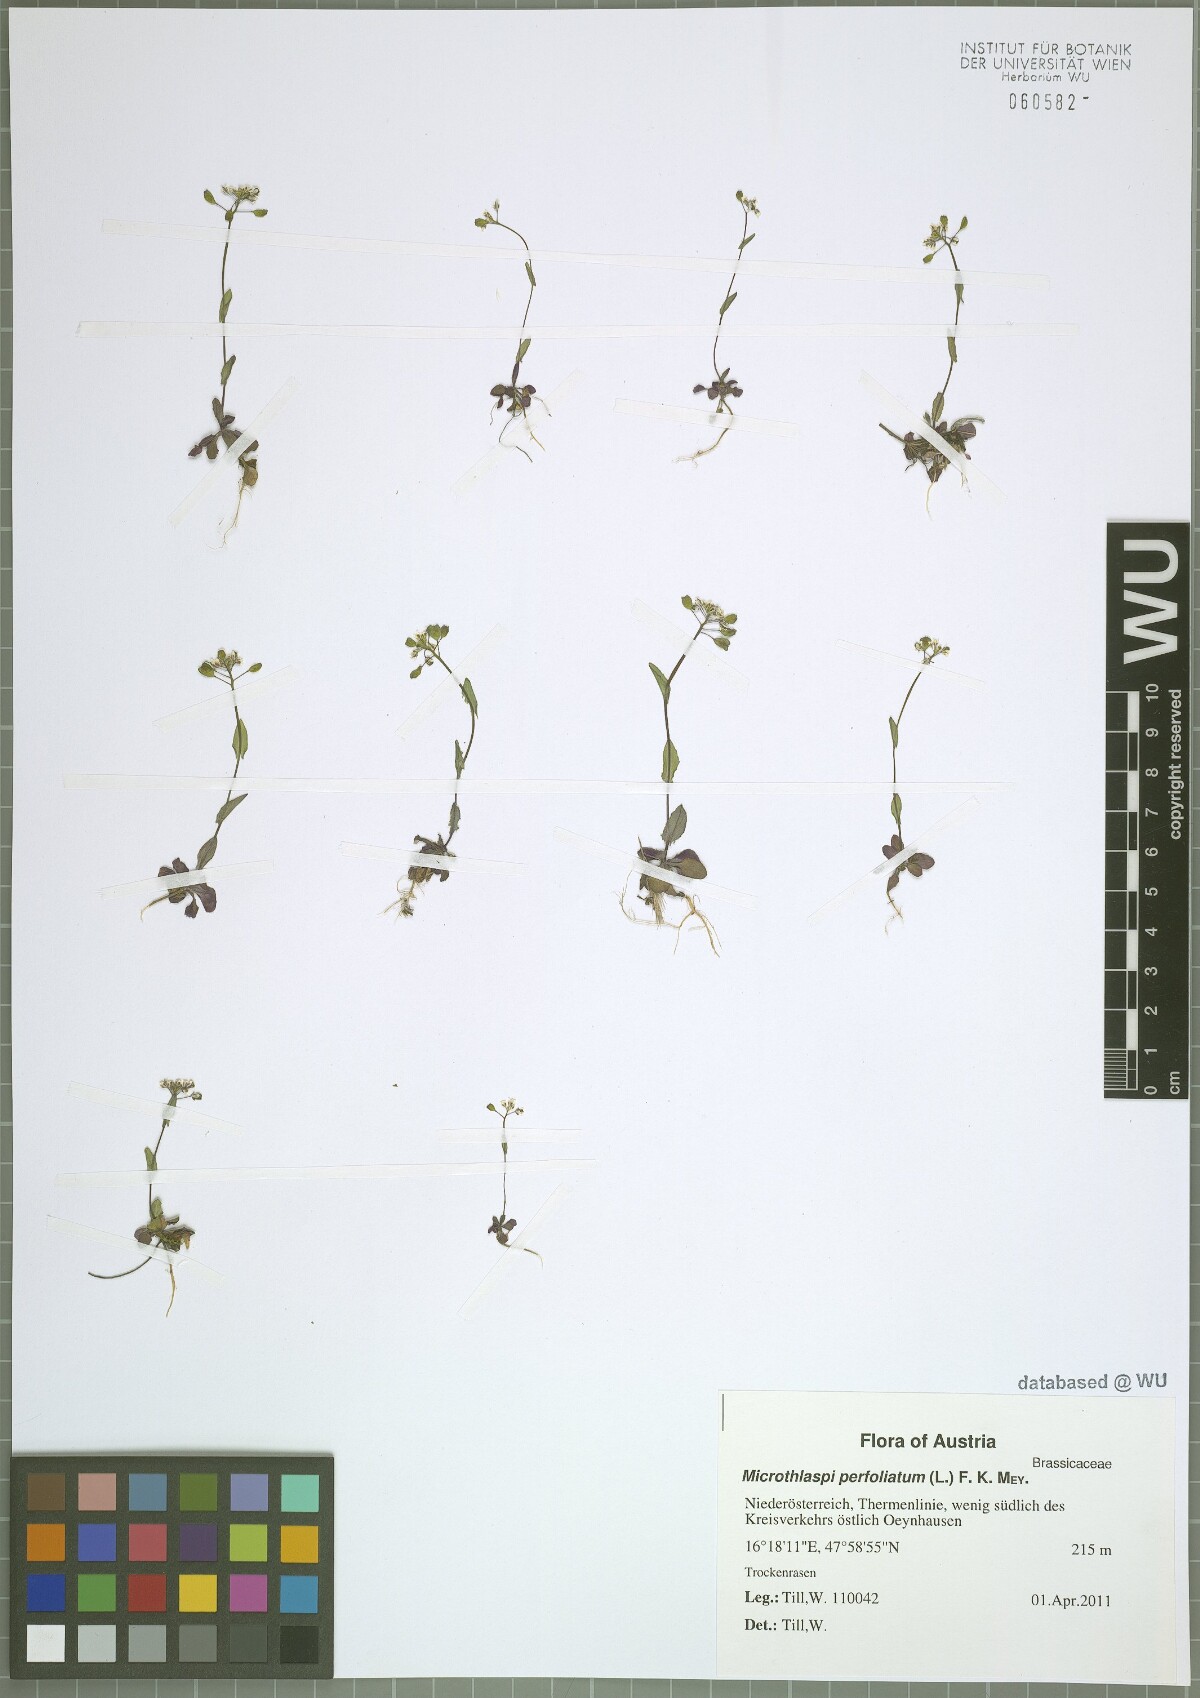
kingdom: Plantae
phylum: Tracheophyta
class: Magnoliopsida
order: Brassicales
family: Brassicaceae
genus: Noccaea
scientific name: Noccaea perfoliata
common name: Perfoliate pennycress
